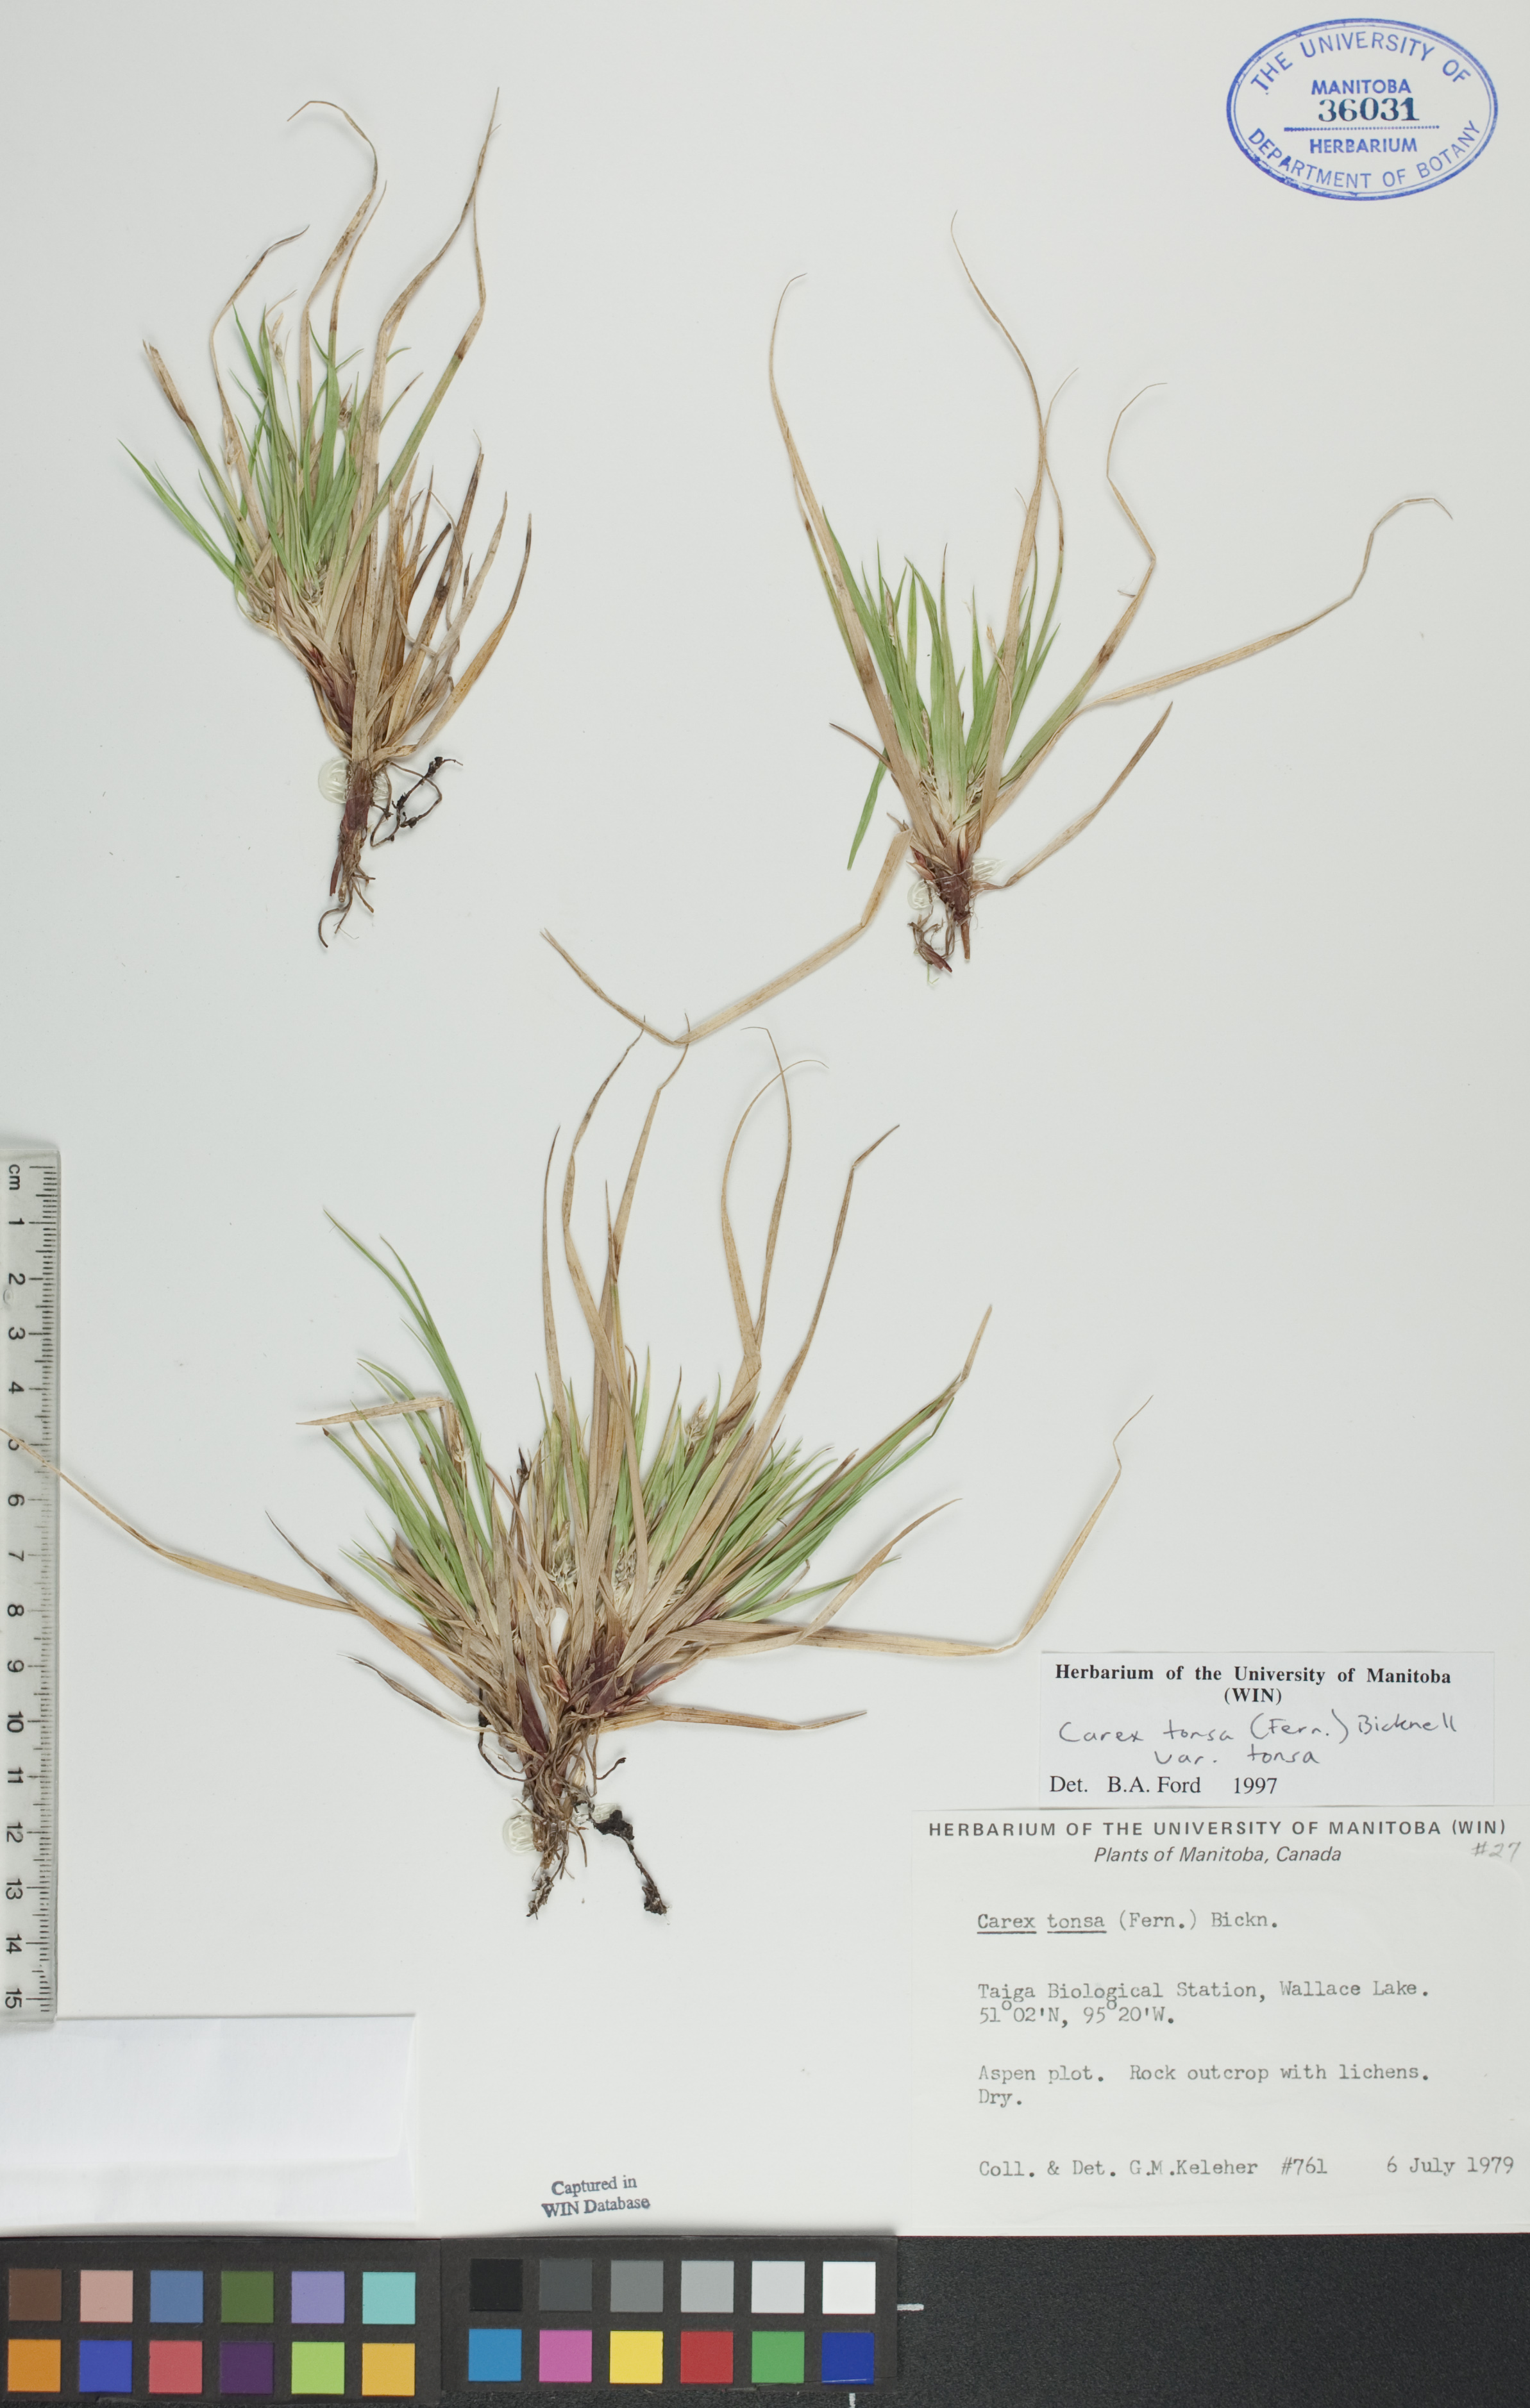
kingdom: Plantae
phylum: Tracheophyta
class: Liliopsida
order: Poales
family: Cyperaceae
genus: Carex
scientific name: Carex tonsa
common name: Bald sedge
